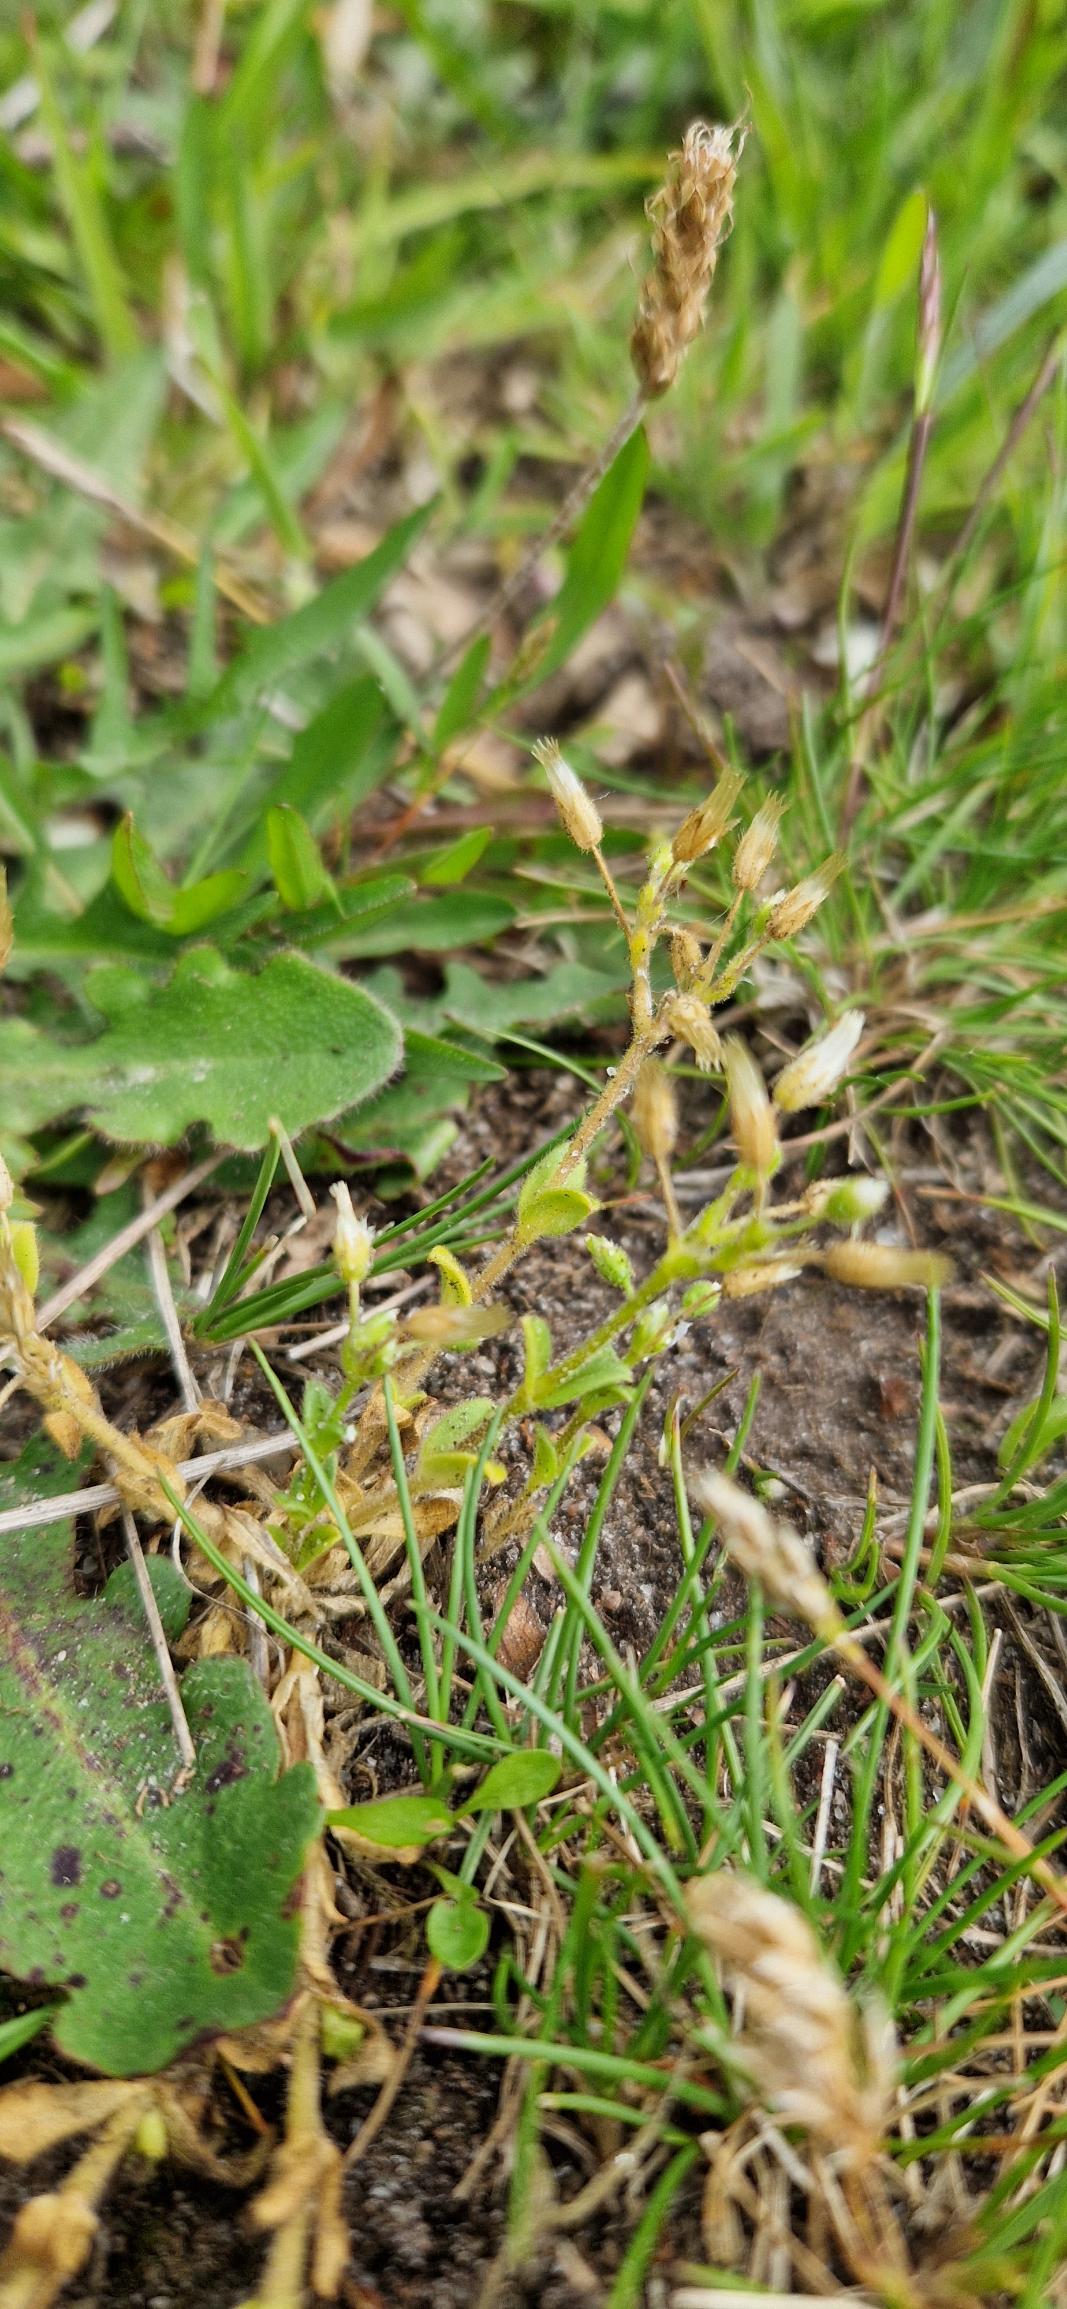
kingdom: Plantae
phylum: Tracheophyta
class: Magnoliopsida
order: Caryophyllales
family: Caryophyllaceae
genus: Cerastium
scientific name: Cerastium semidecandrum
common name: Femhannet hønsetarm
